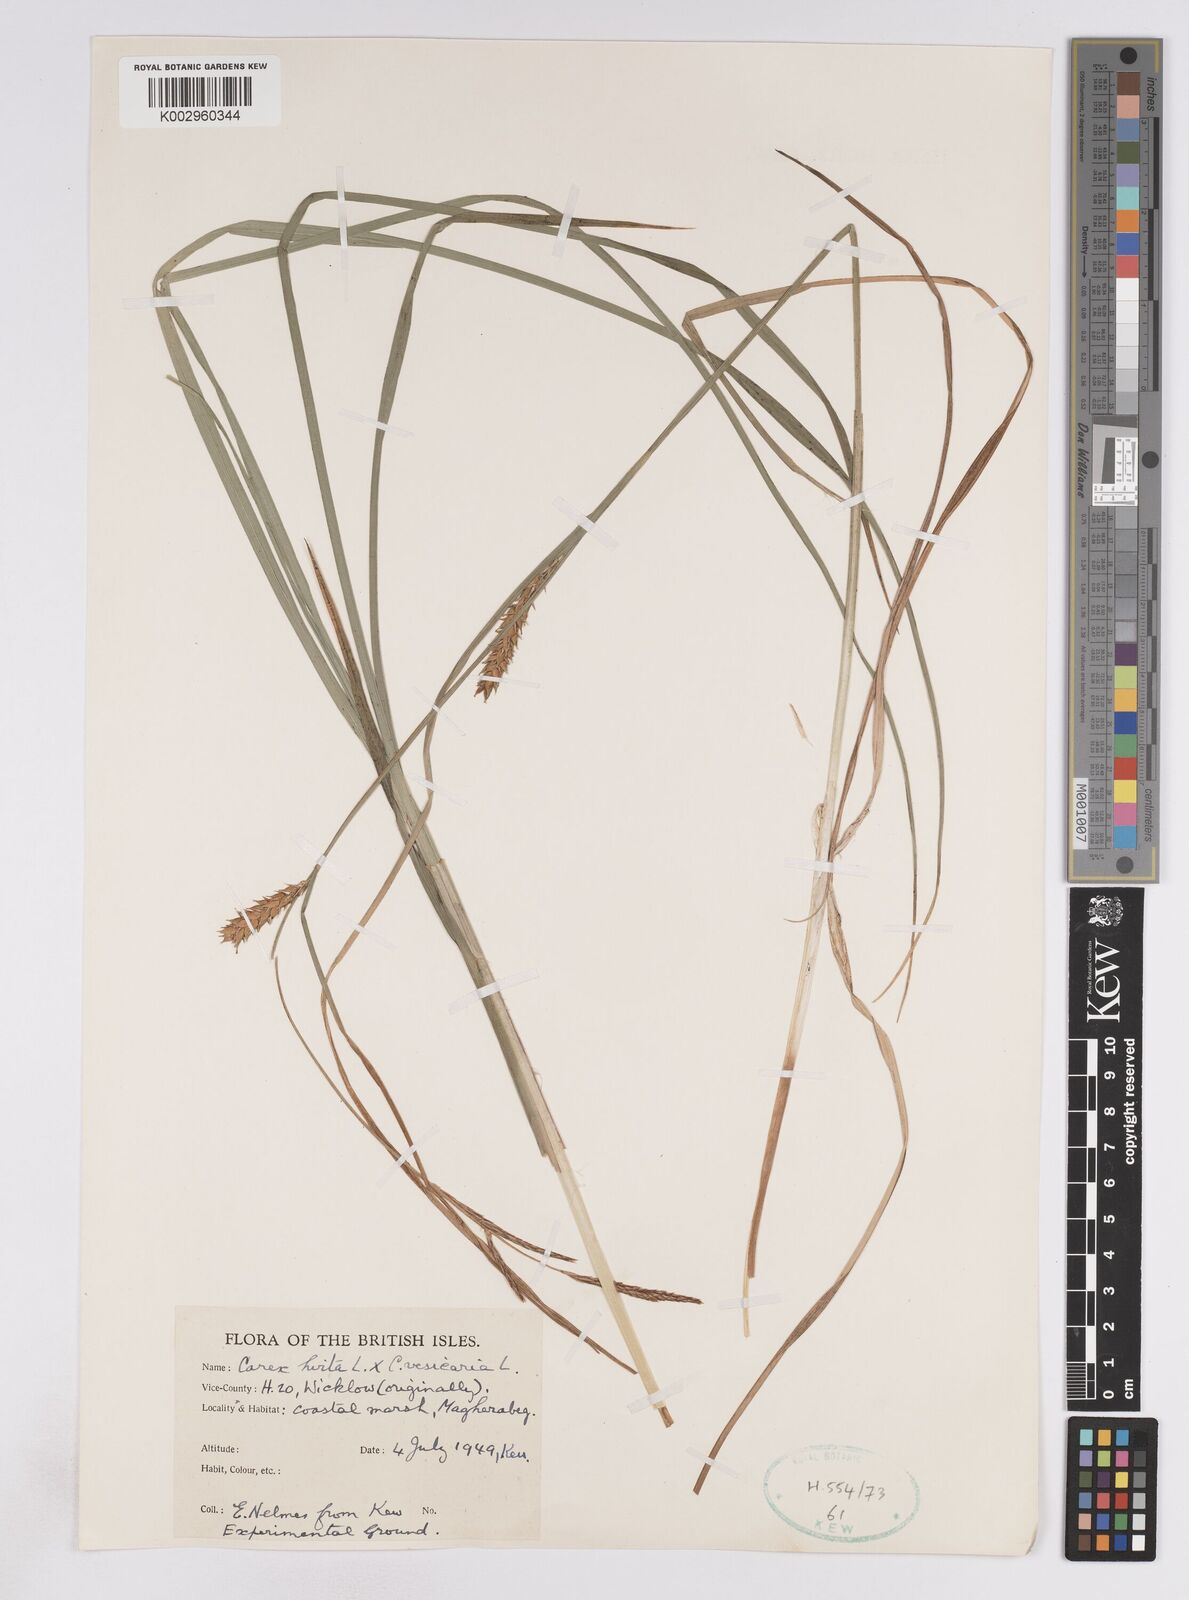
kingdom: Plantae
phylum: Tracheophyta
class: Liliopsida
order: Poales
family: Cyperaceae
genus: Carex
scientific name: Carex vesicaria
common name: Bladder-sedge
